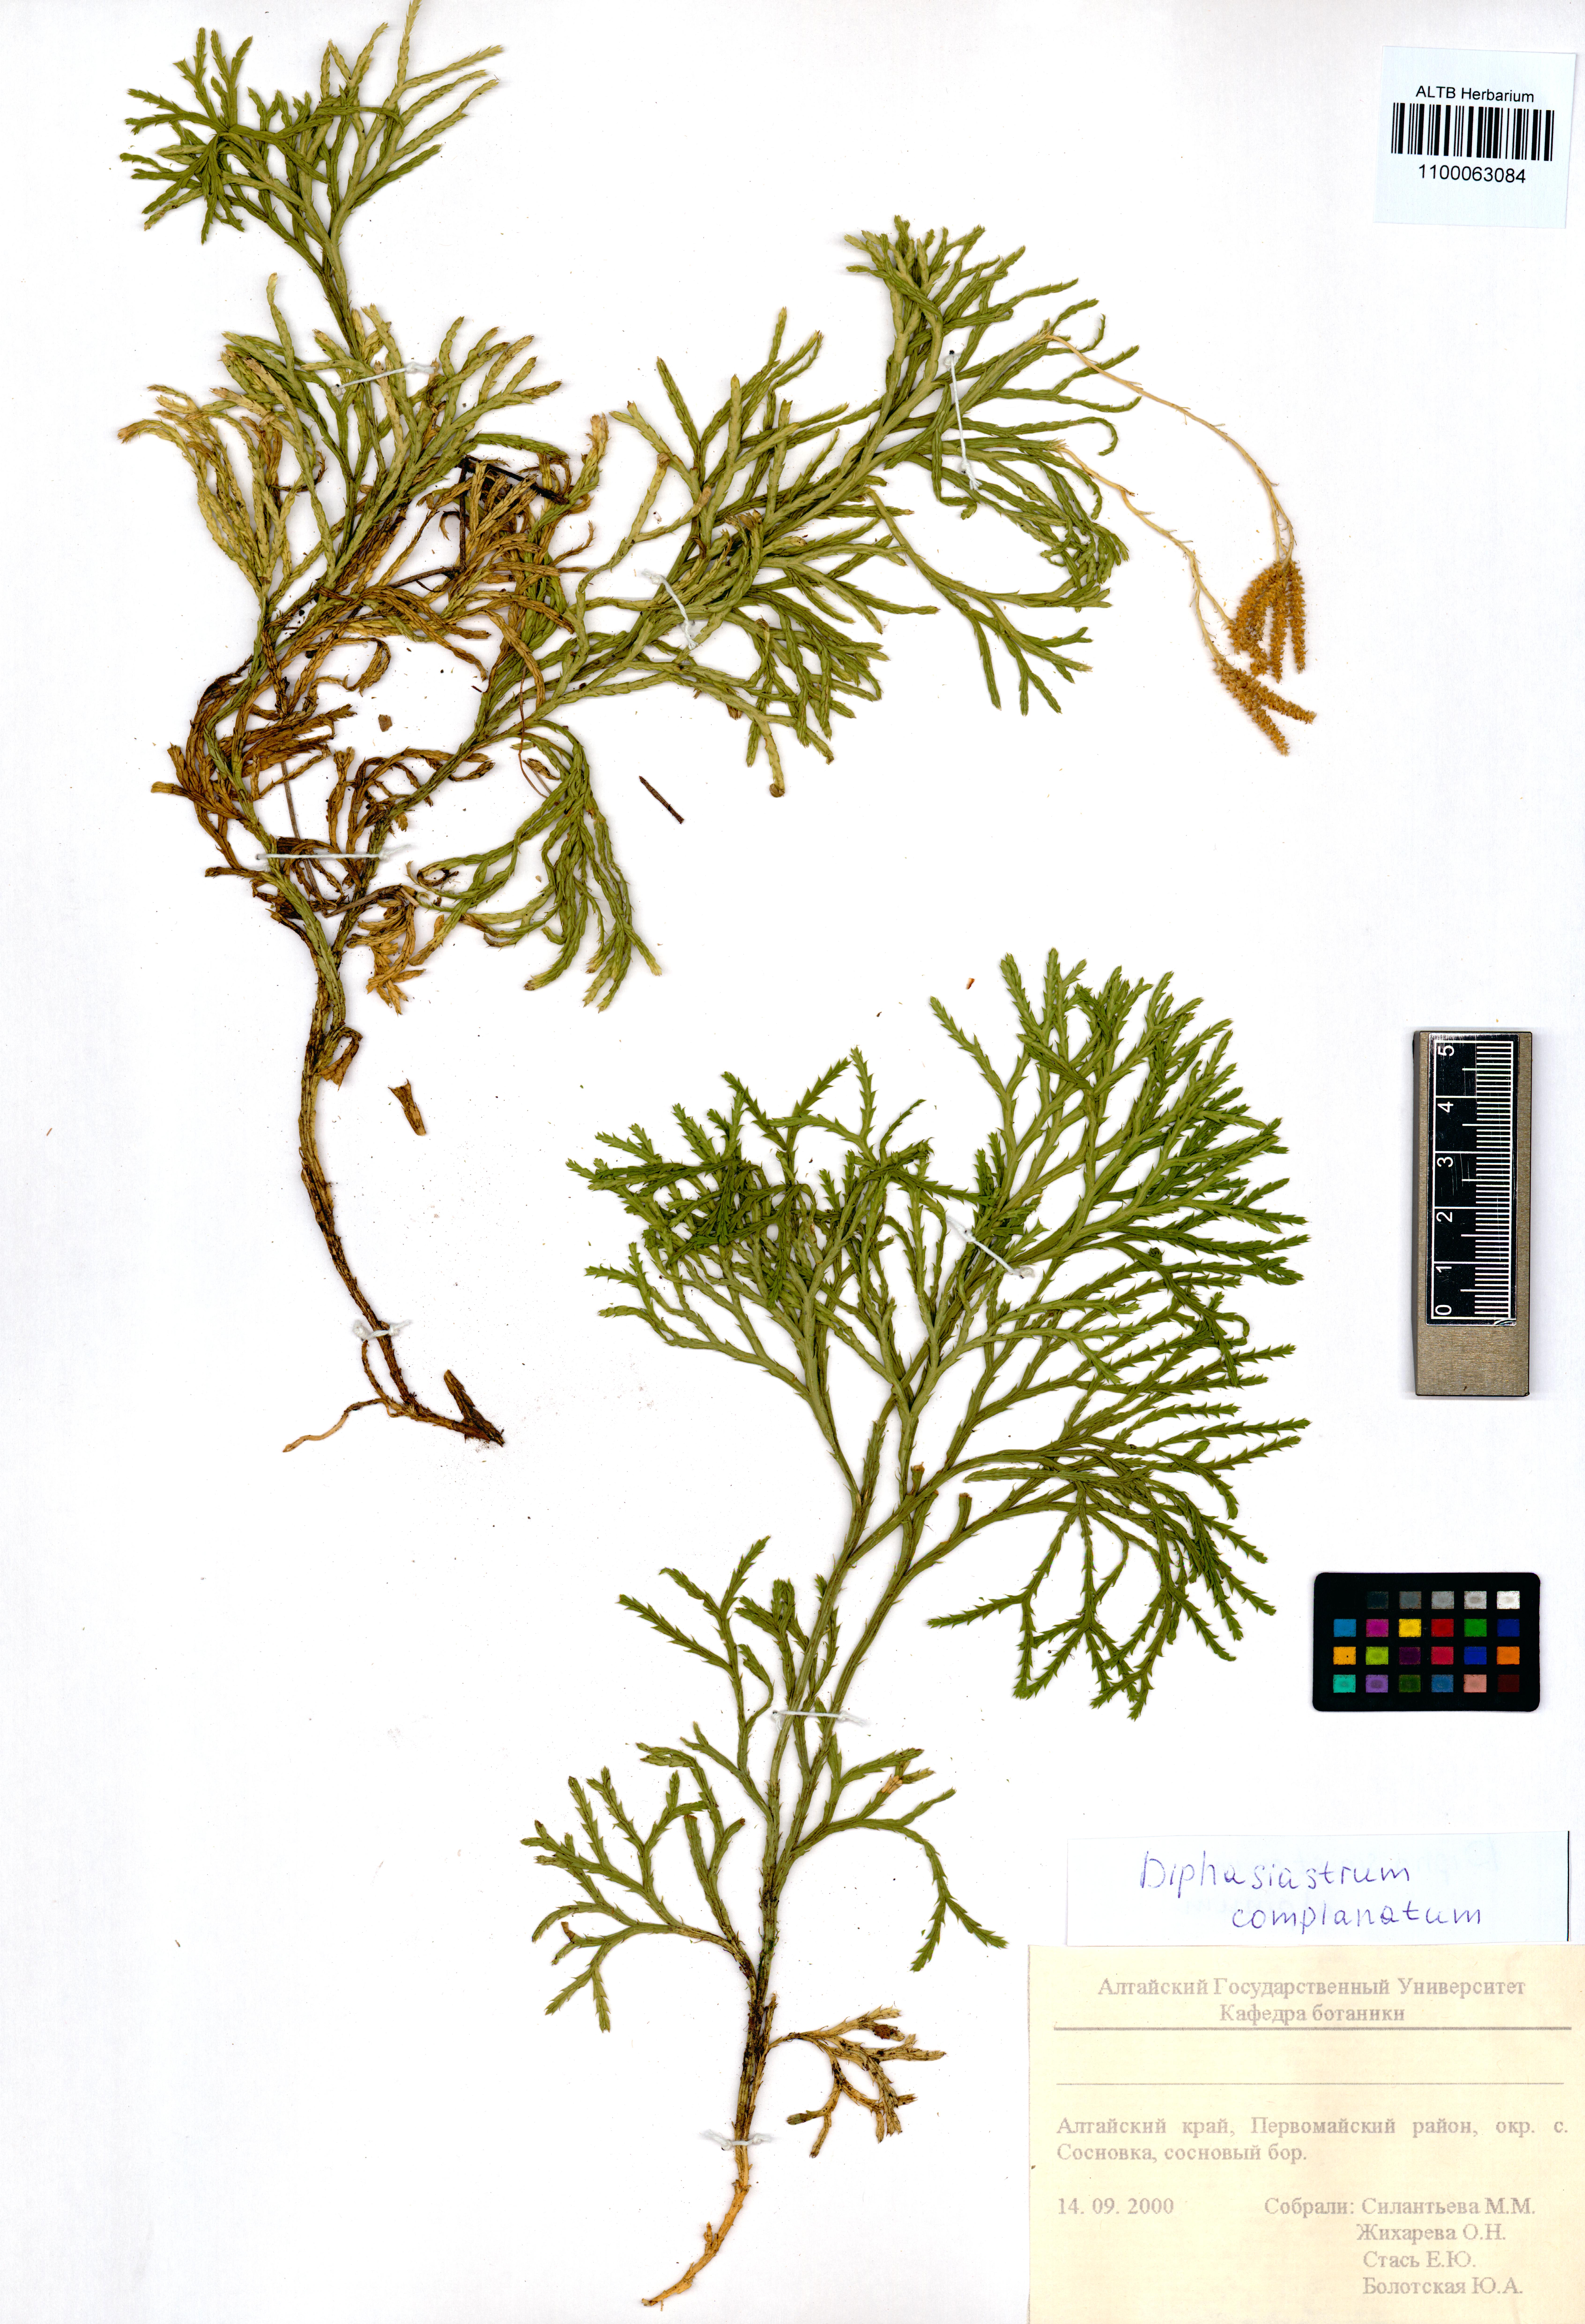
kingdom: Plantae
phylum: Tracheophyta
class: Lycopodiopsida
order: Lycopodiales
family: Lycopodiaceae
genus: Diphasiastrum
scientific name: Diphasiastrum complanatum
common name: Northern running-pine
